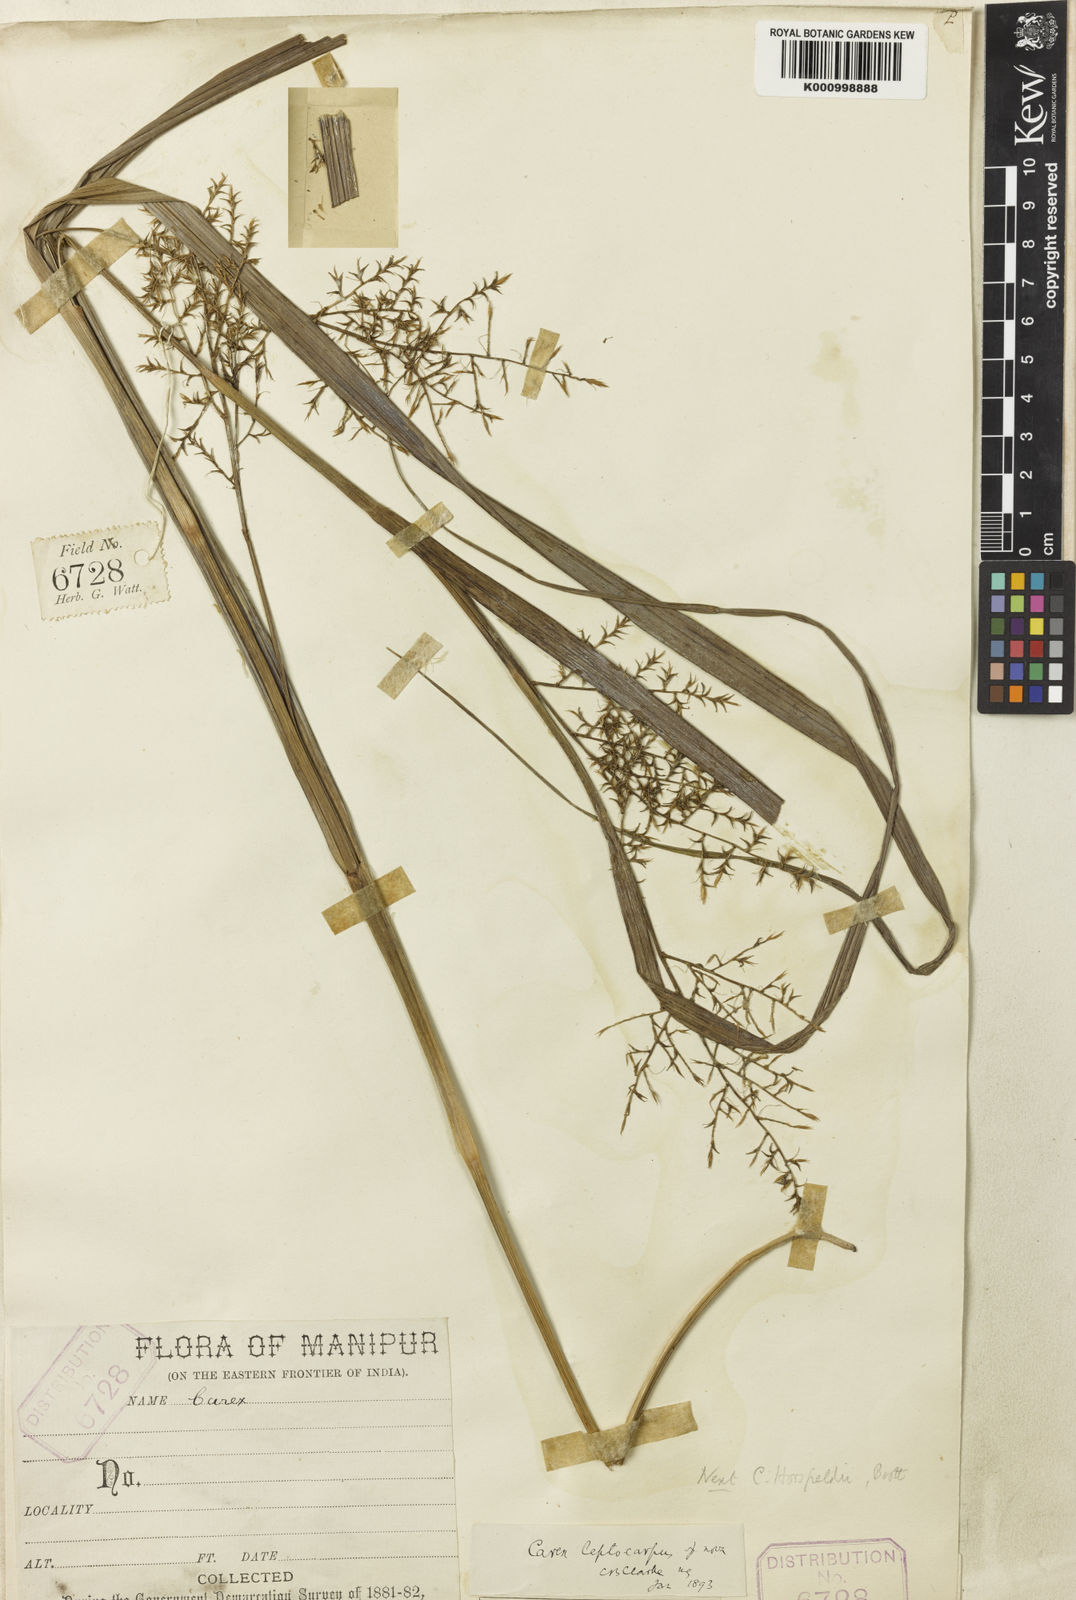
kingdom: Plantae
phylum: Tracheophyta
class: Liliopsida
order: Poales
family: Cyperaceae
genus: Carex
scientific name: Carex filicina
